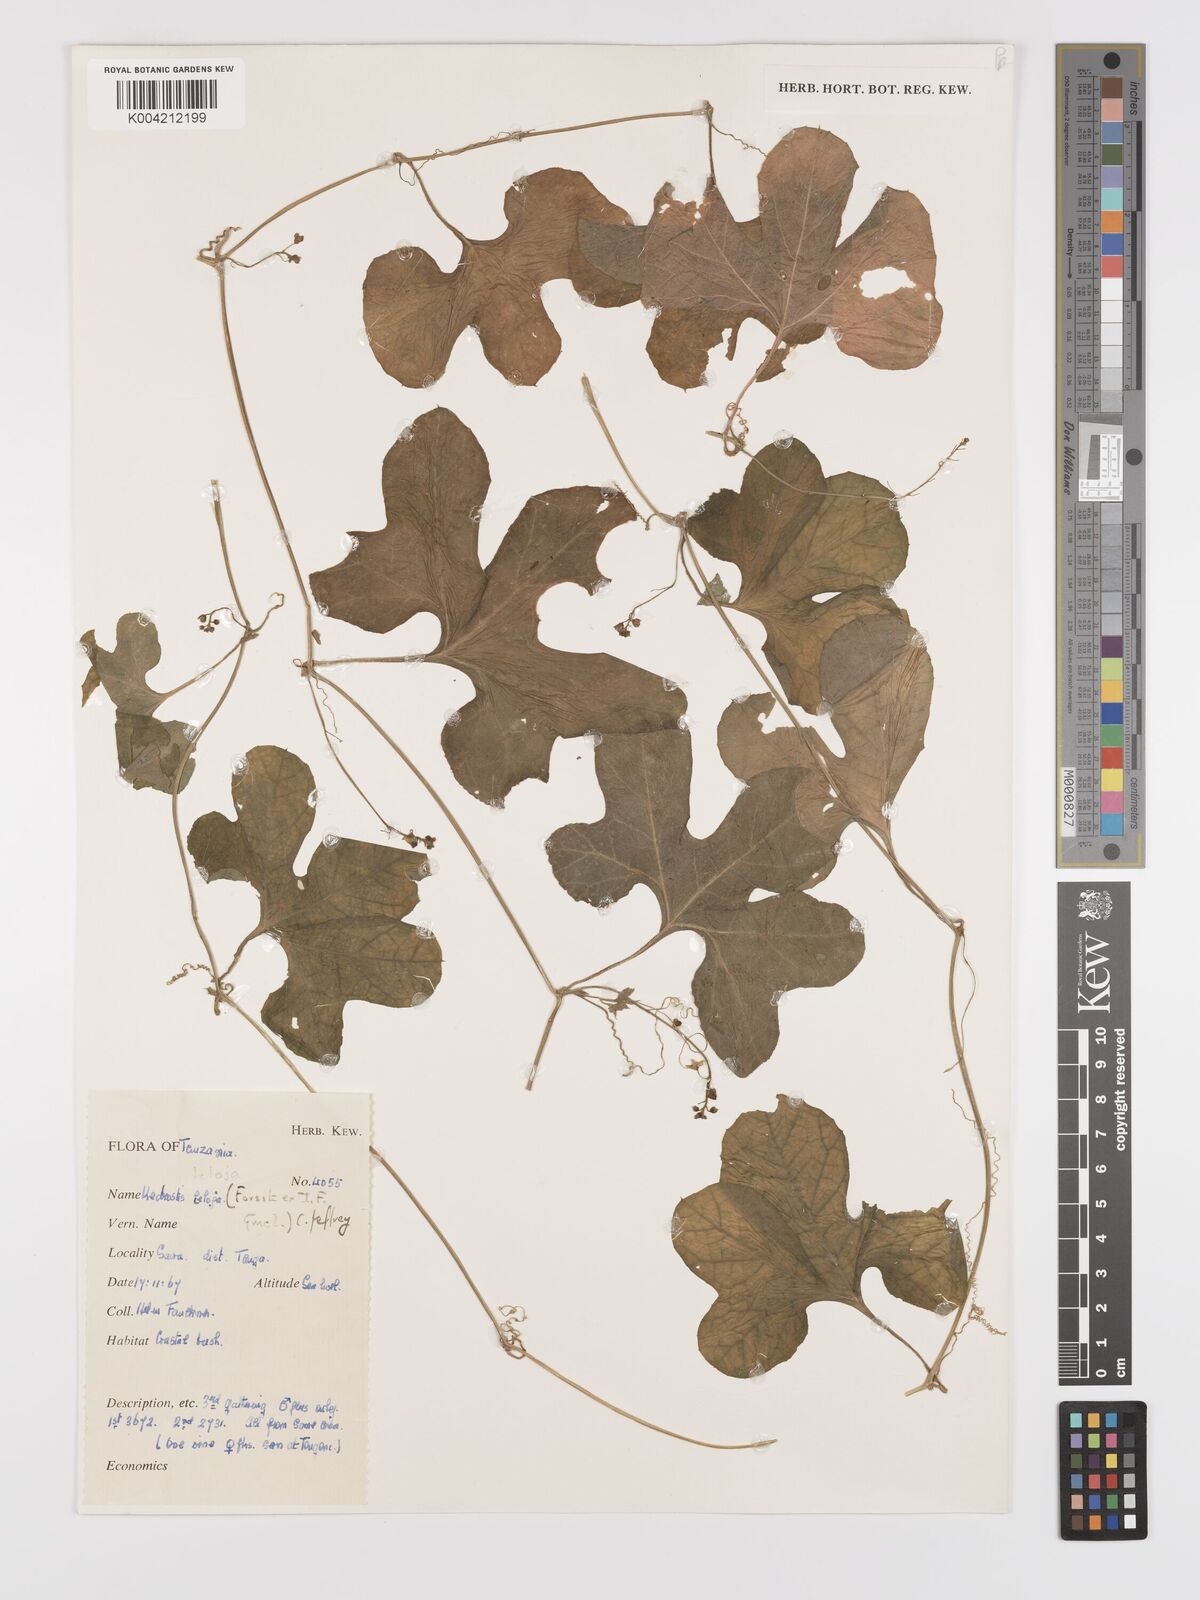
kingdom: Plantae
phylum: Tracheophyta
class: Magnoliopsida
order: Cucurbitales
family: Cucurbitaceae
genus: Kedrostis
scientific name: Kedrostis abdallae
